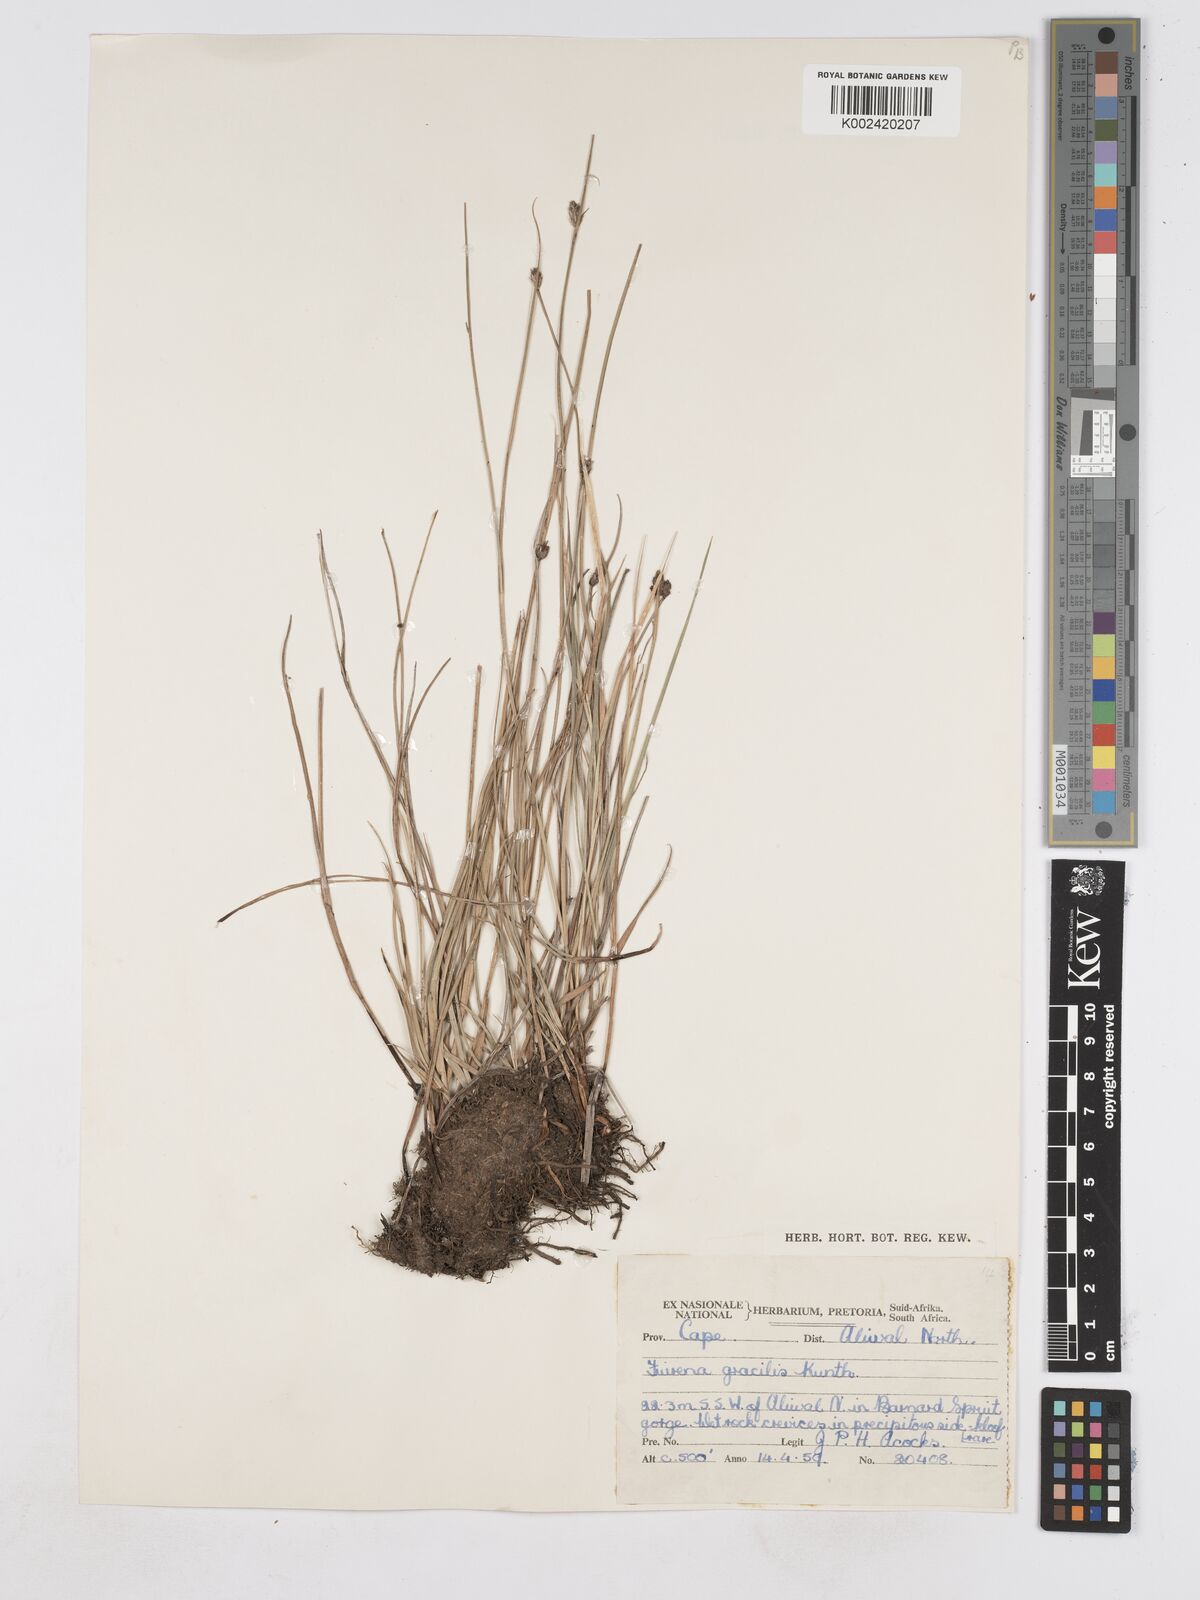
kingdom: Plantae
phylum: Tracheophyta
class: Liliopsida
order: Poales
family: Cyperaceae
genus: Fuirena
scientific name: Fuirena coerulescens
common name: Blue umbrella-sedge
